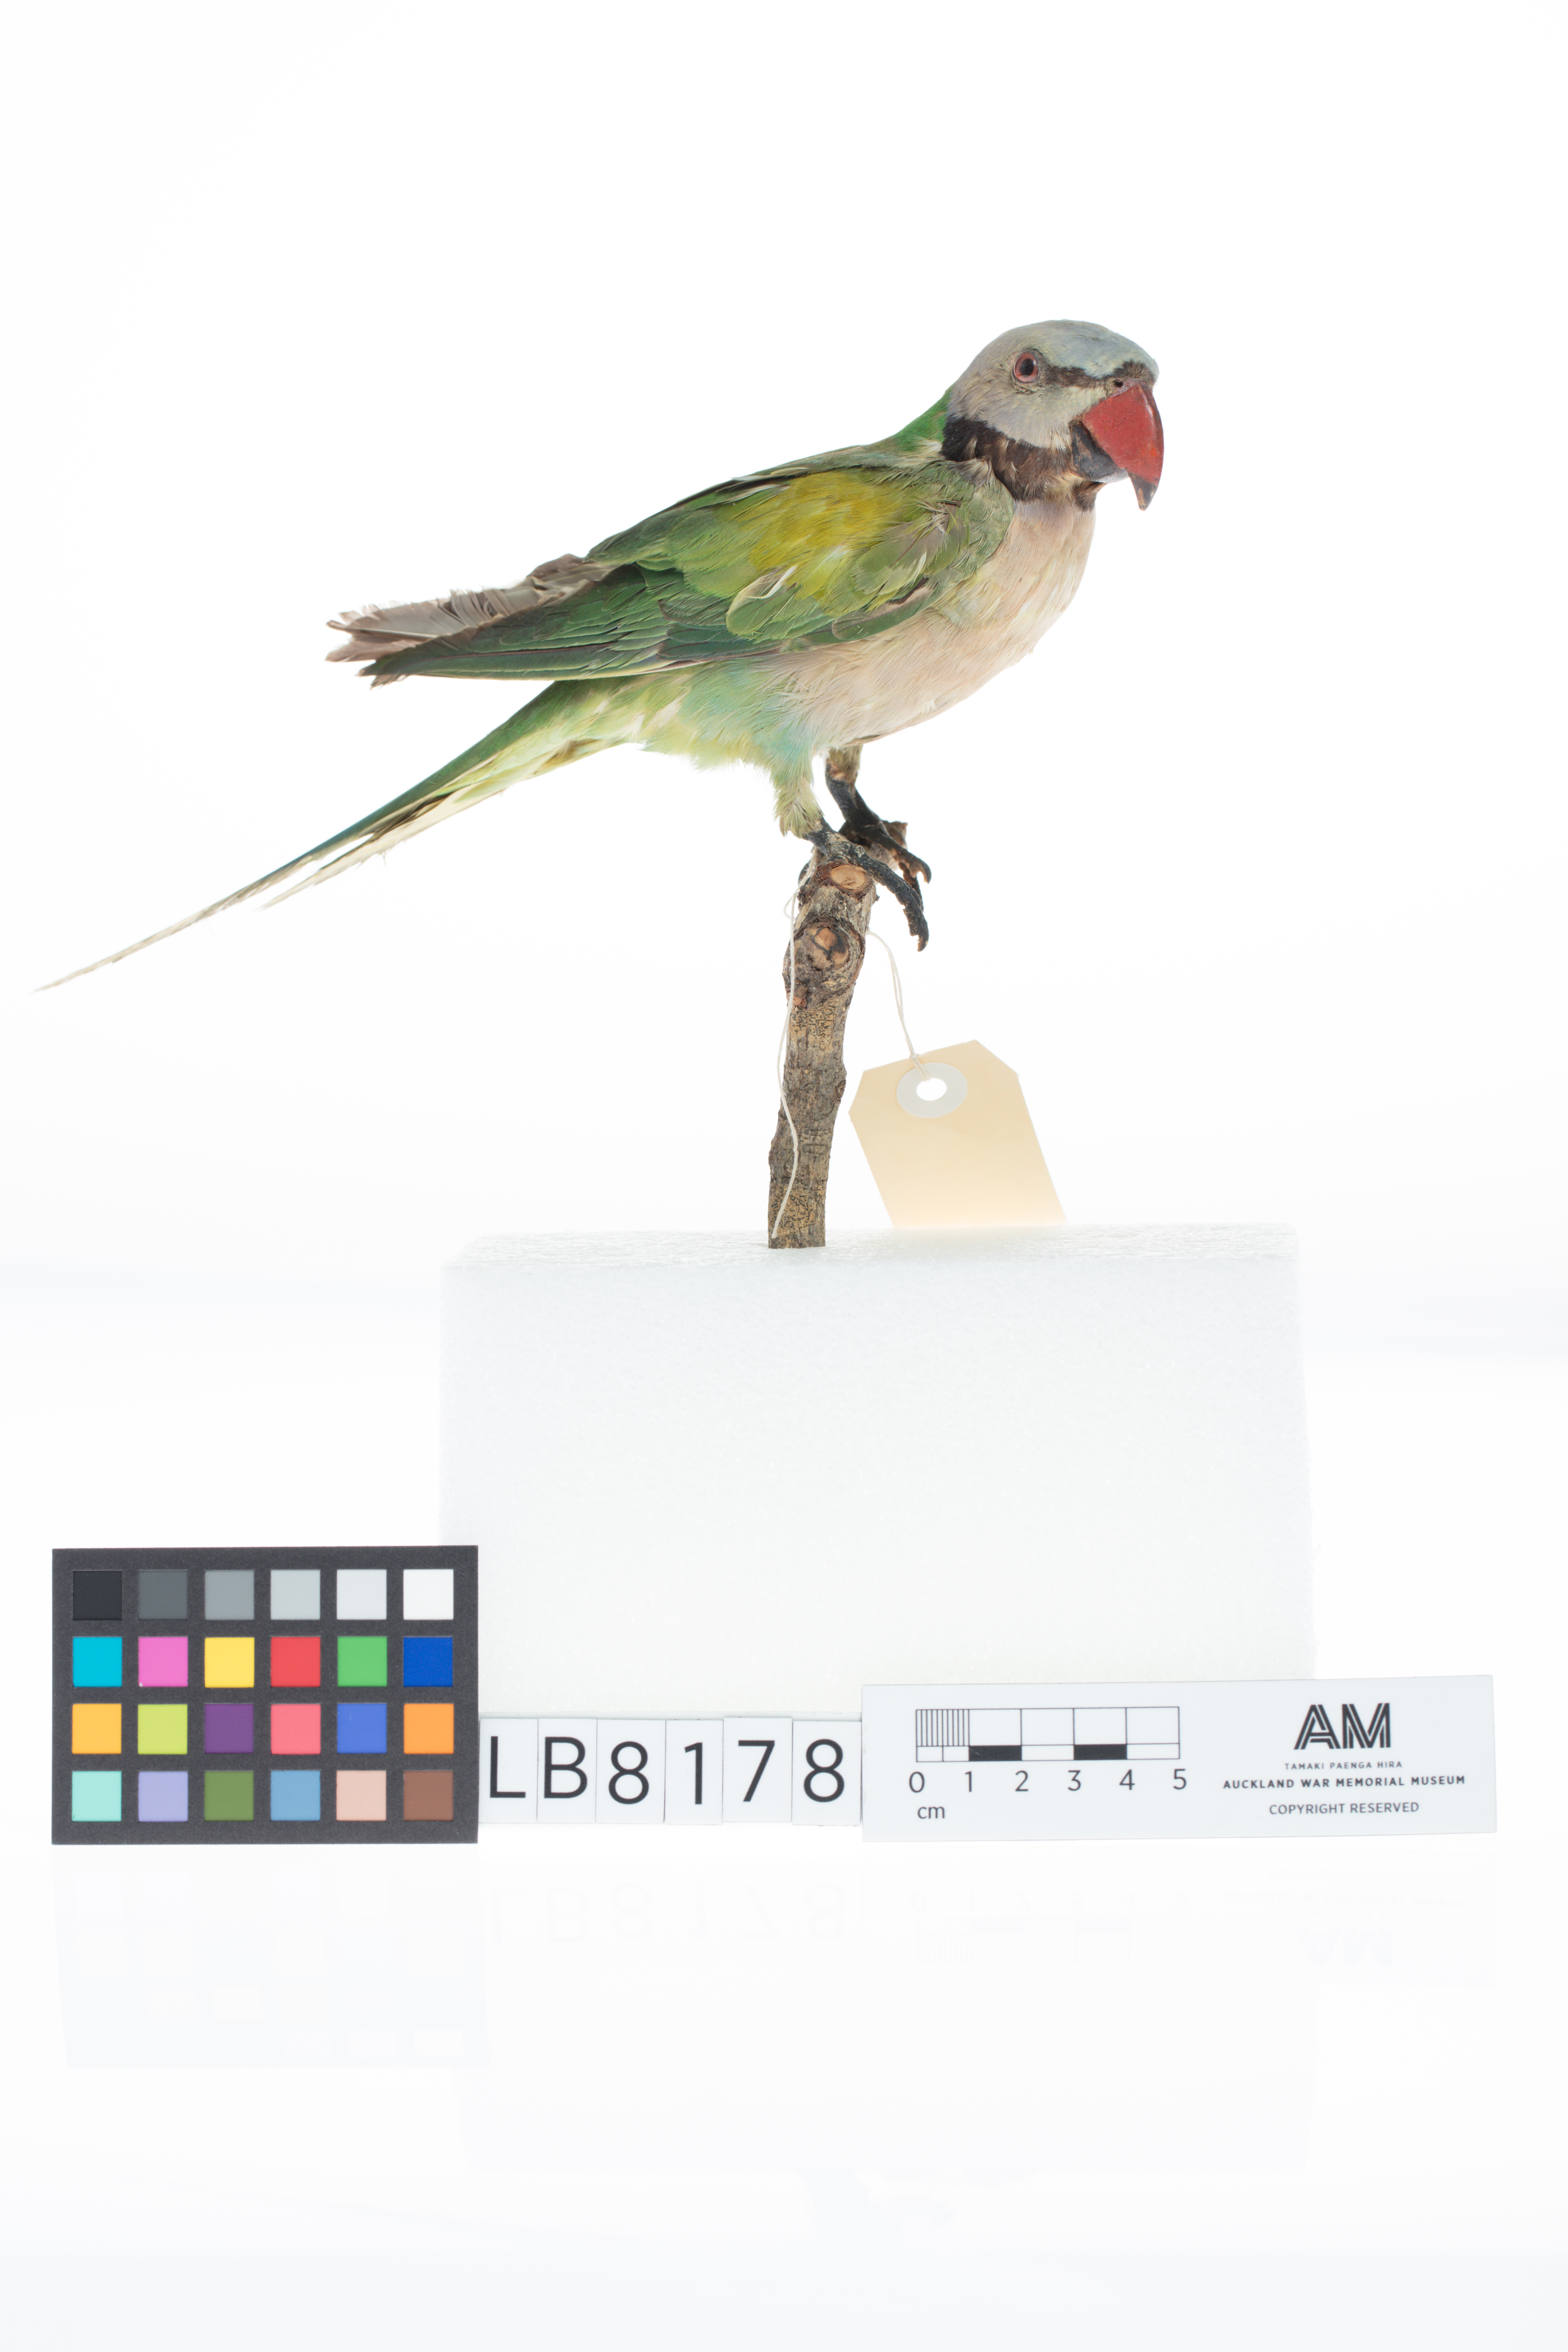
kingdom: Animalia
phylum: Chordata
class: Aves
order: Psittaciformes
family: Psittacidae
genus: Psittacula
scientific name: Psittacula alexandri
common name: Red-breasted parakeet
